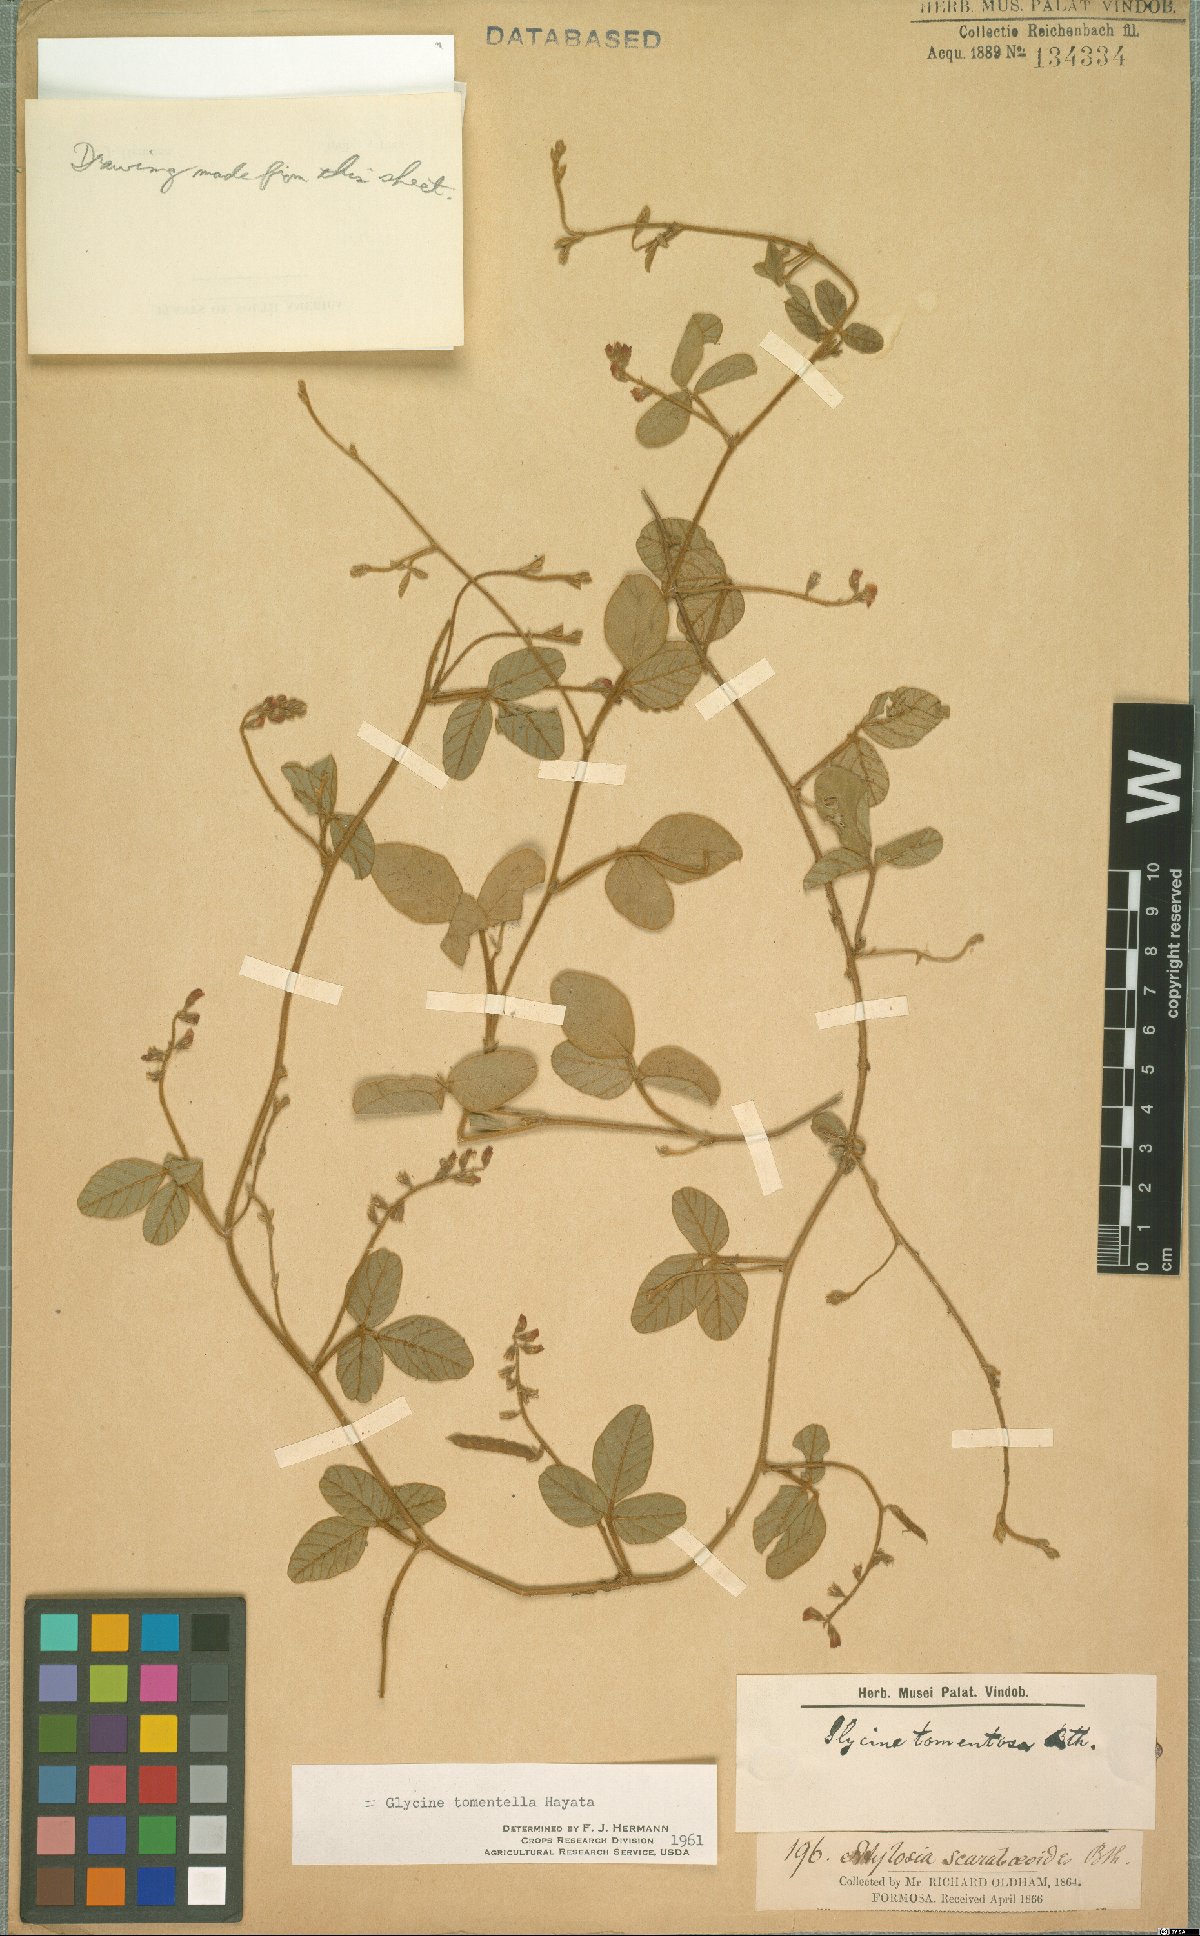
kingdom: Plantae
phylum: Tracheophyta
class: Magnoliopsida
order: Fabales
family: Fabaceae
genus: Glycine
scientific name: Glycine tomentella
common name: Hairy glycine
